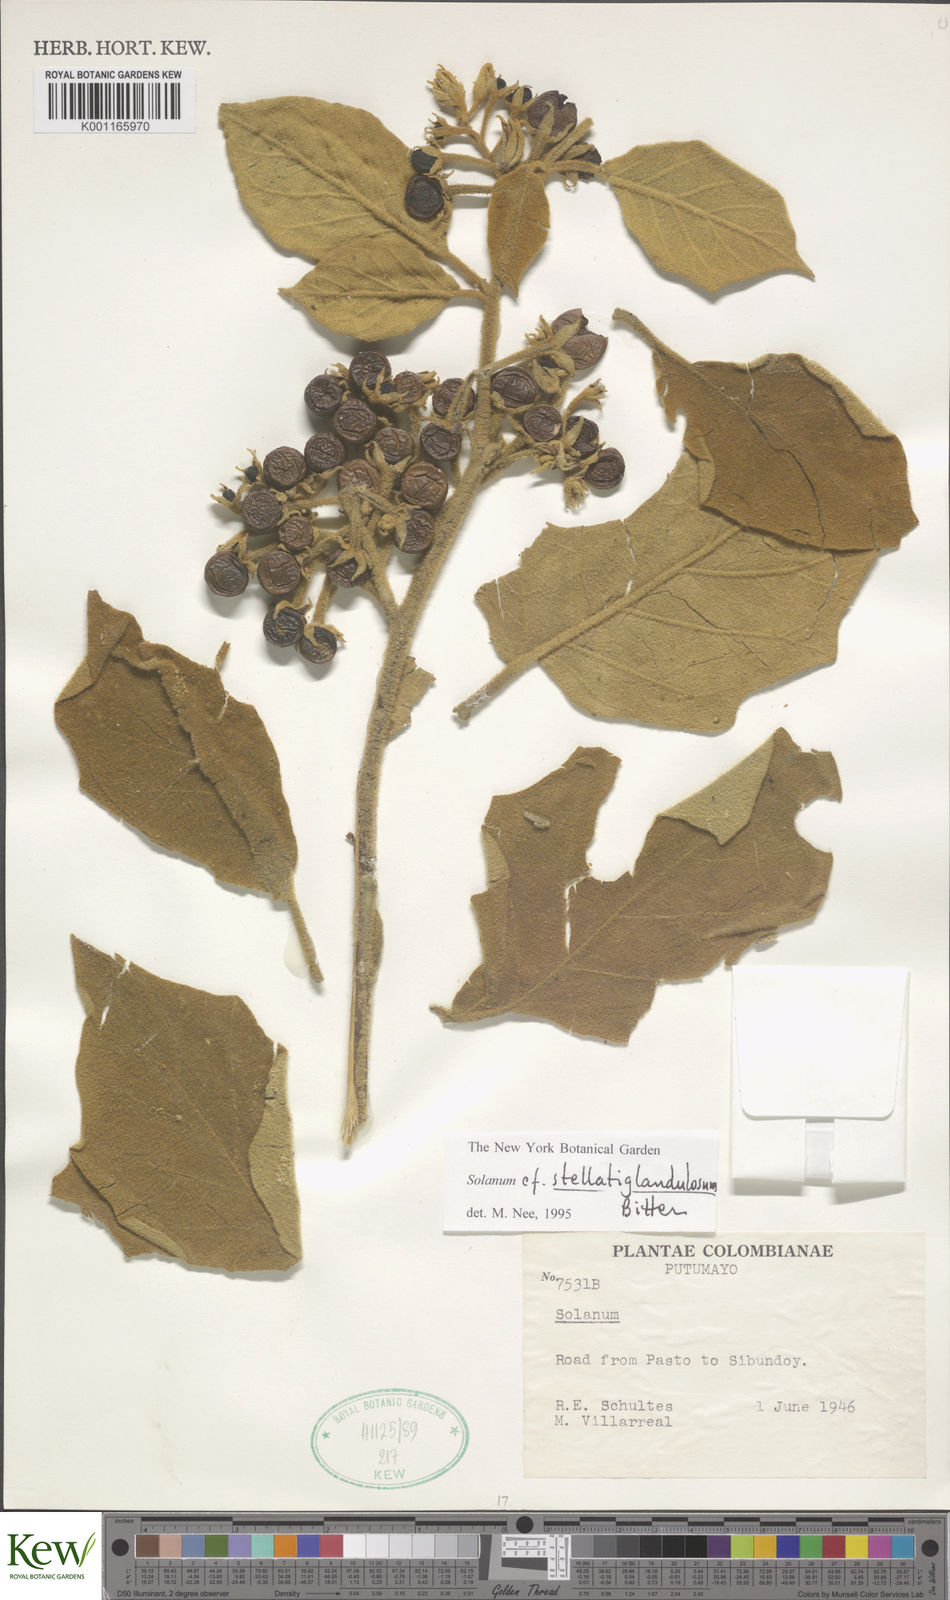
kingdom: Plantae
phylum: Tracheophyta
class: Magnoliopsida
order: Solanales
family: Solanaceae
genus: Solanum
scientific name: Solanum stellatiglandulosum
